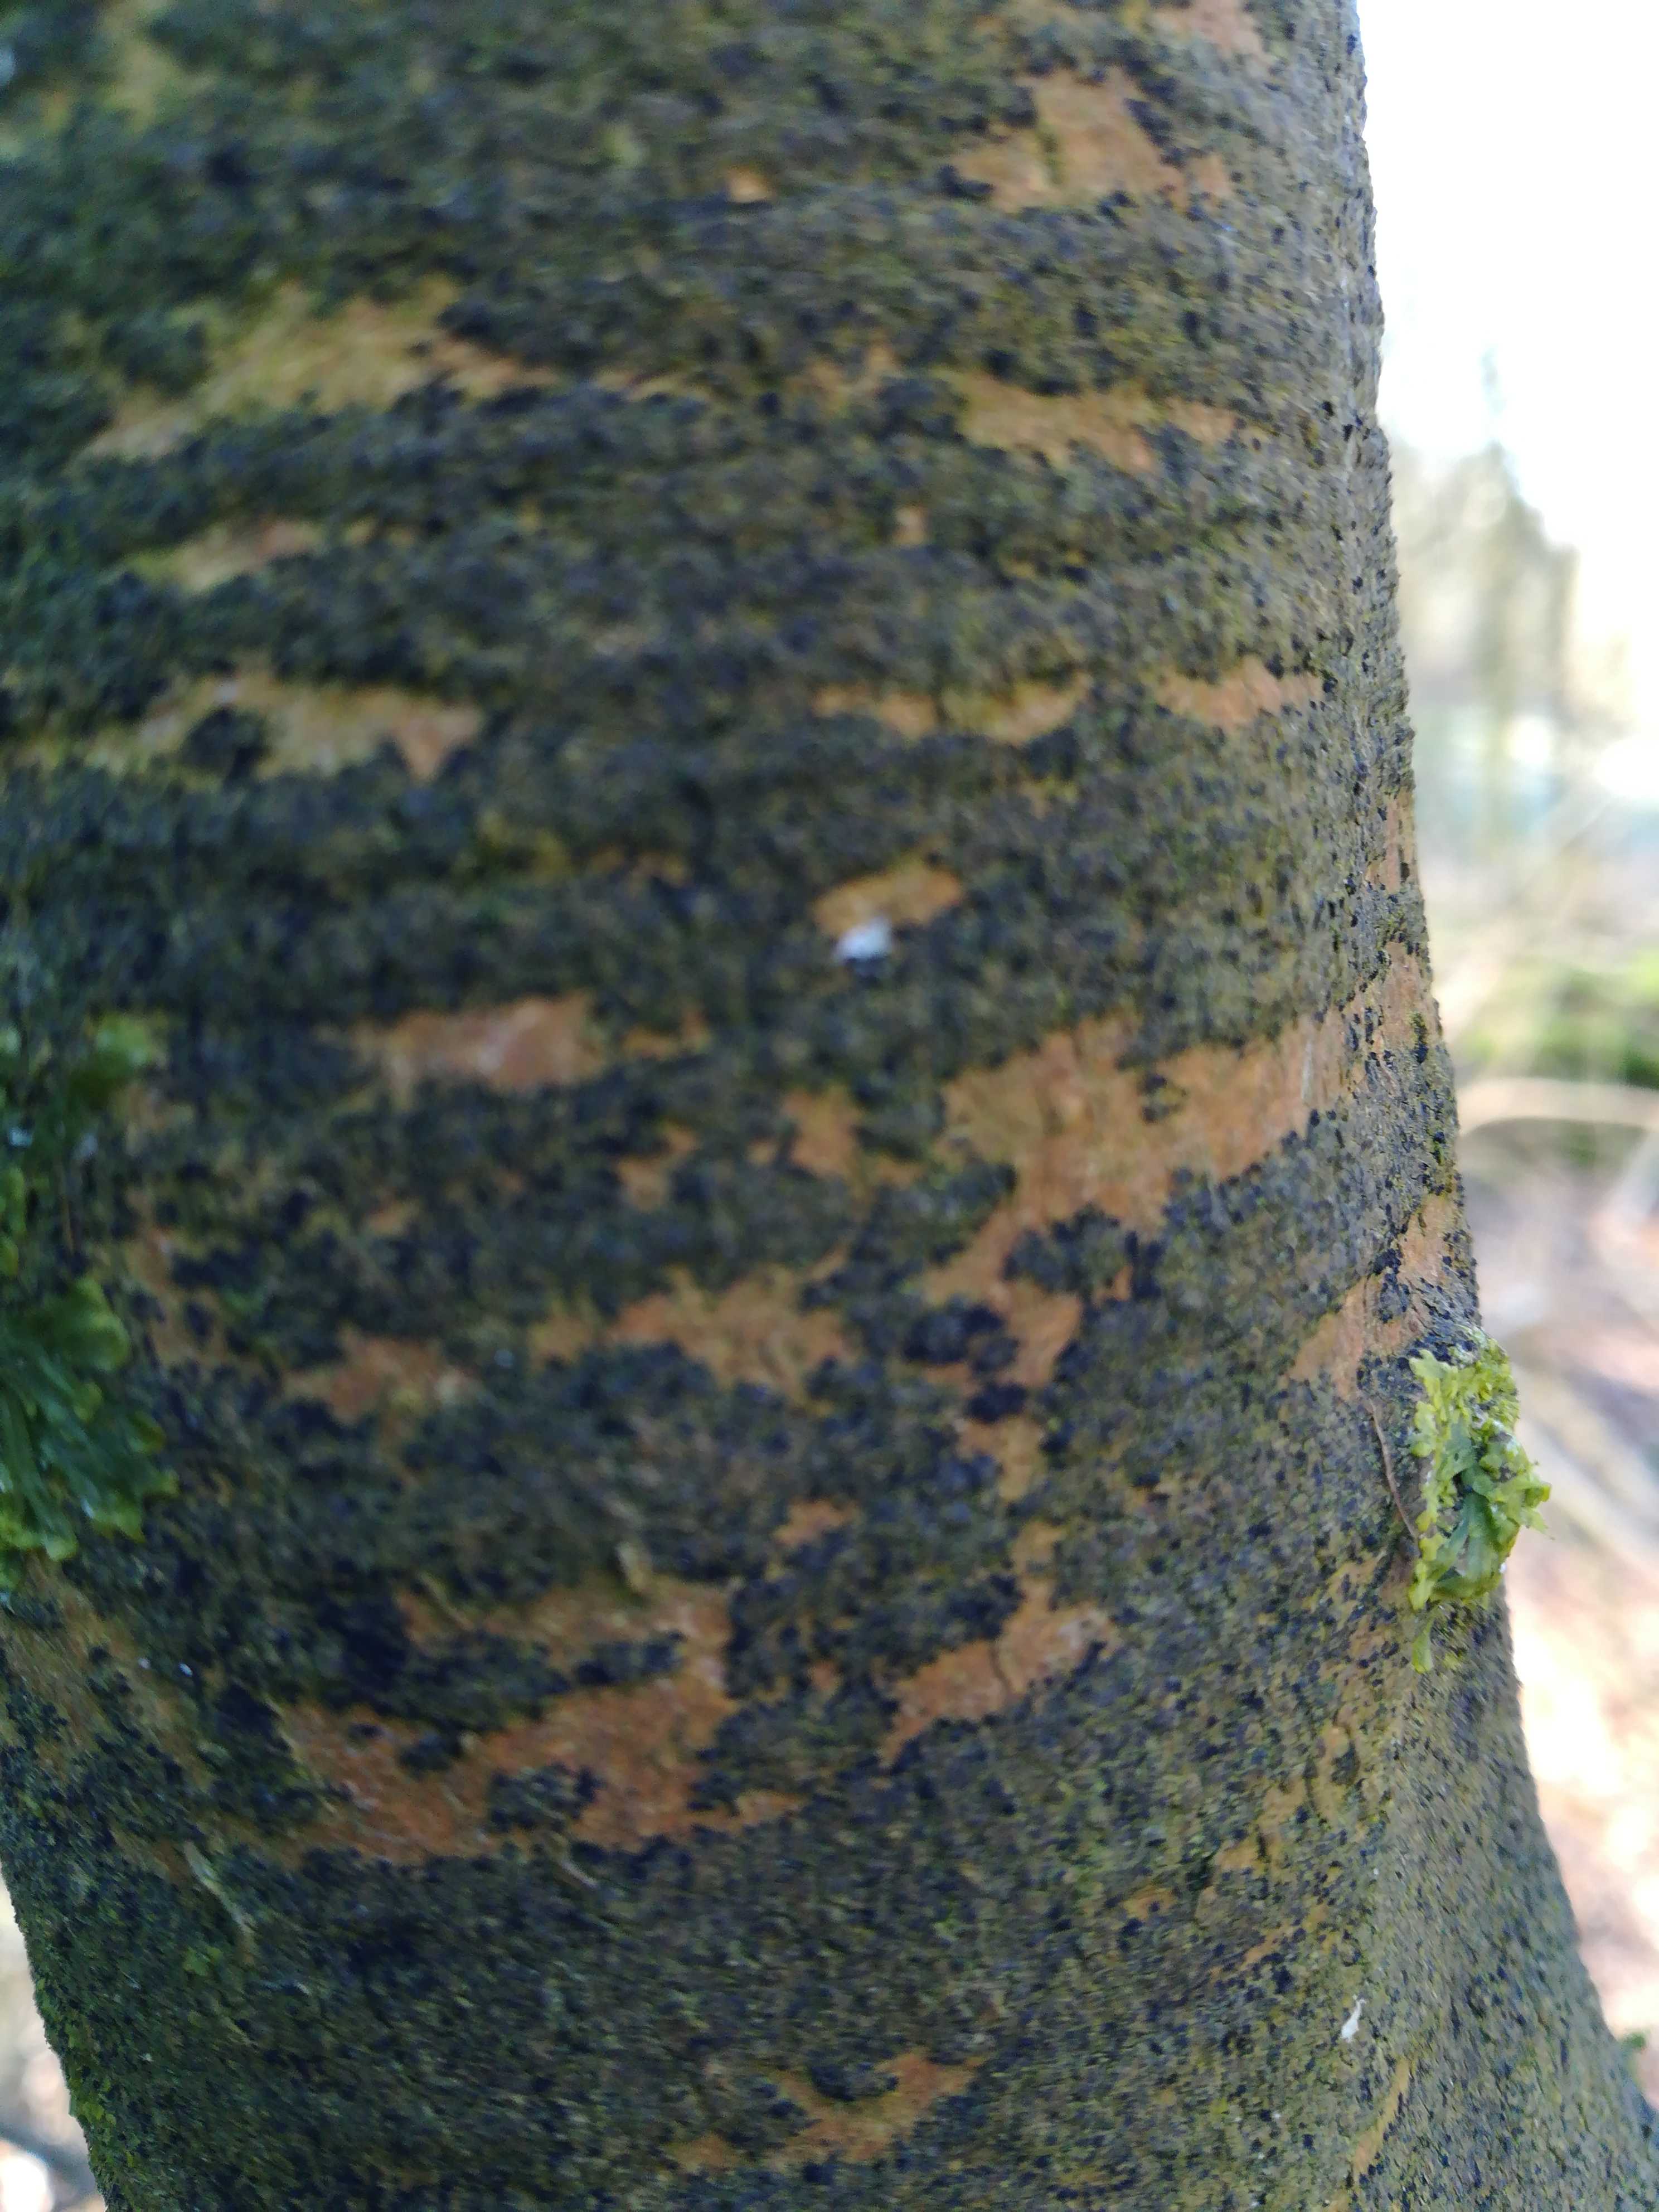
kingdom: Fungi
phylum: Ascomycota
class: Leotiomycetes
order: Rhytismatales
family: Ascodichaenaceae
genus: Ascodichaena
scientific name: Ascodichaena rugosa
